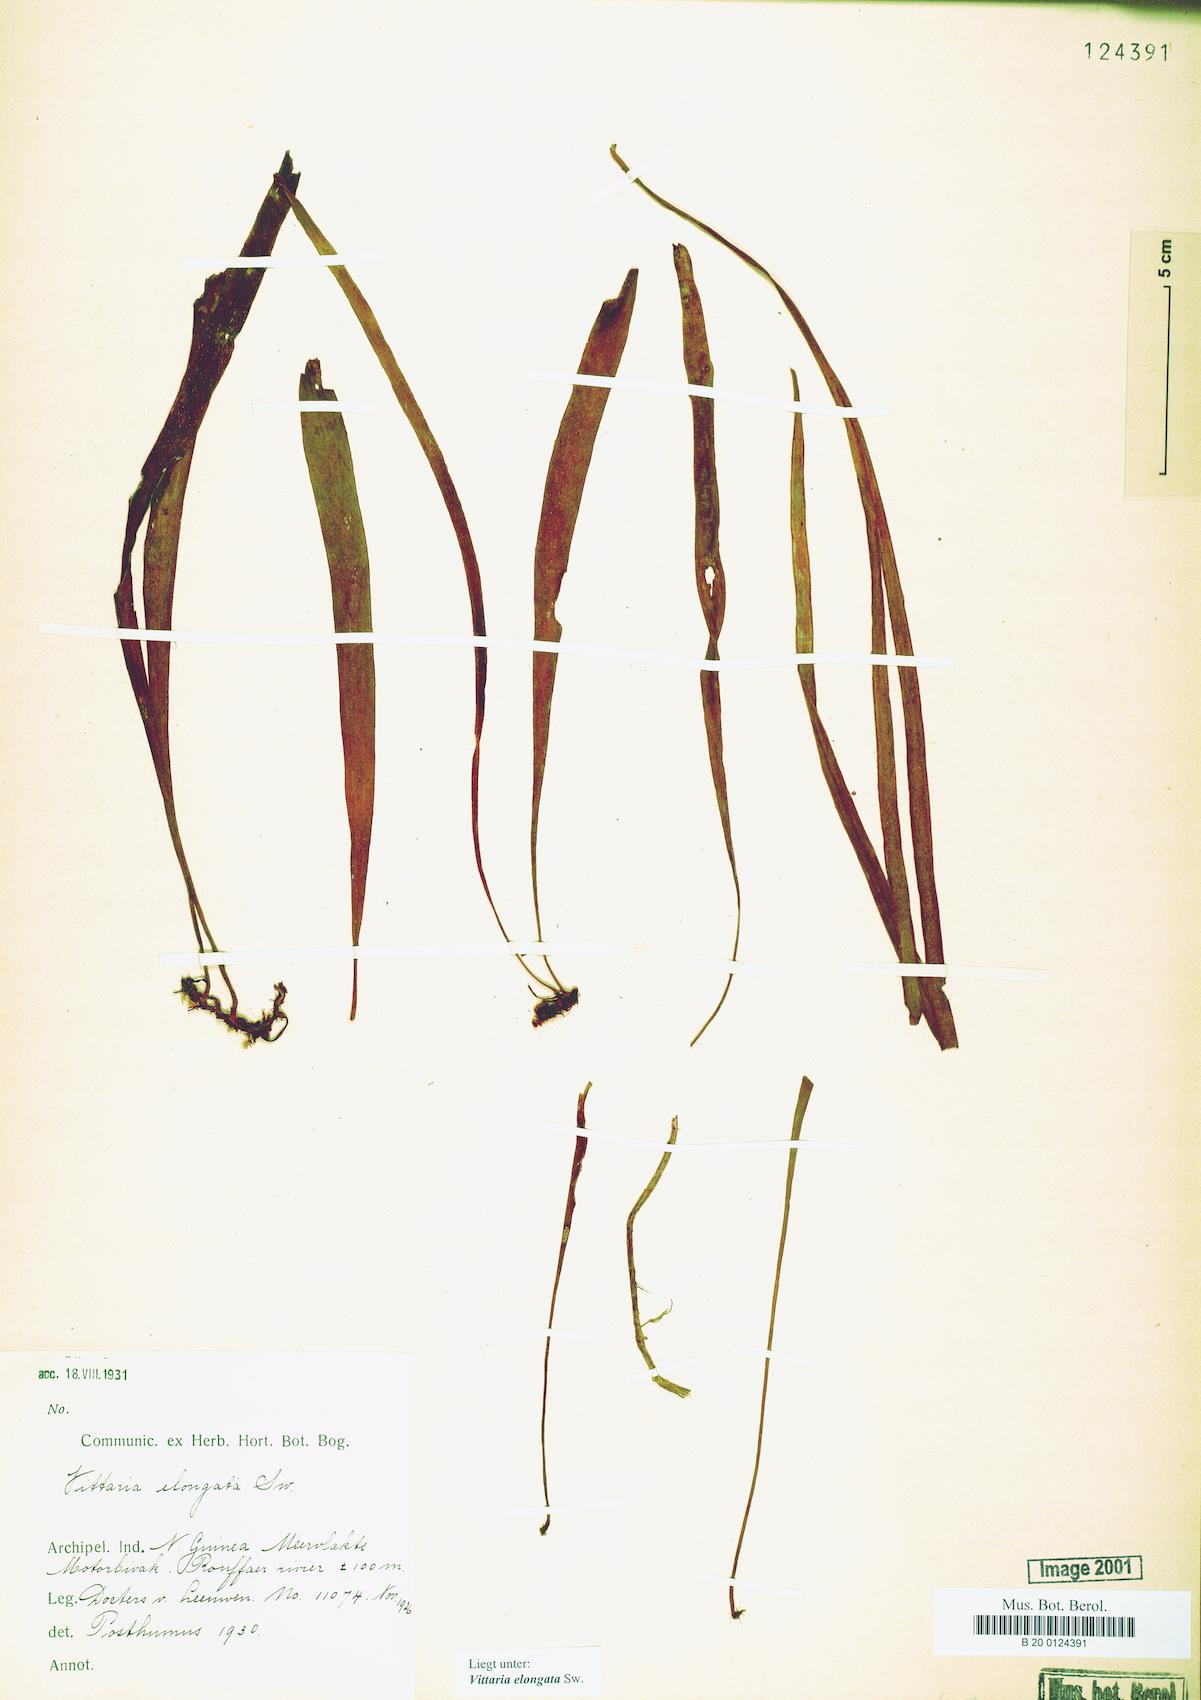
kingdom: Plantae
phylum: Tracheophyta
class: Polypodiopsida
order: Polypodiales
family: Pteridaceae
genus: Haplopteris
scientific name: Haplopteris elongata
